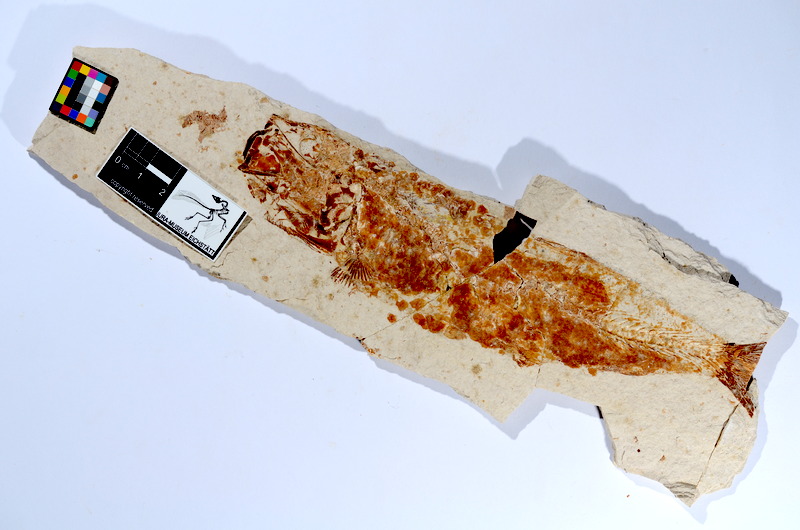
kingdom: Animalia
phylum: Chordata
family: Ascalaboidae
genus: Tharsis
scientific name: Tharsis dubius
